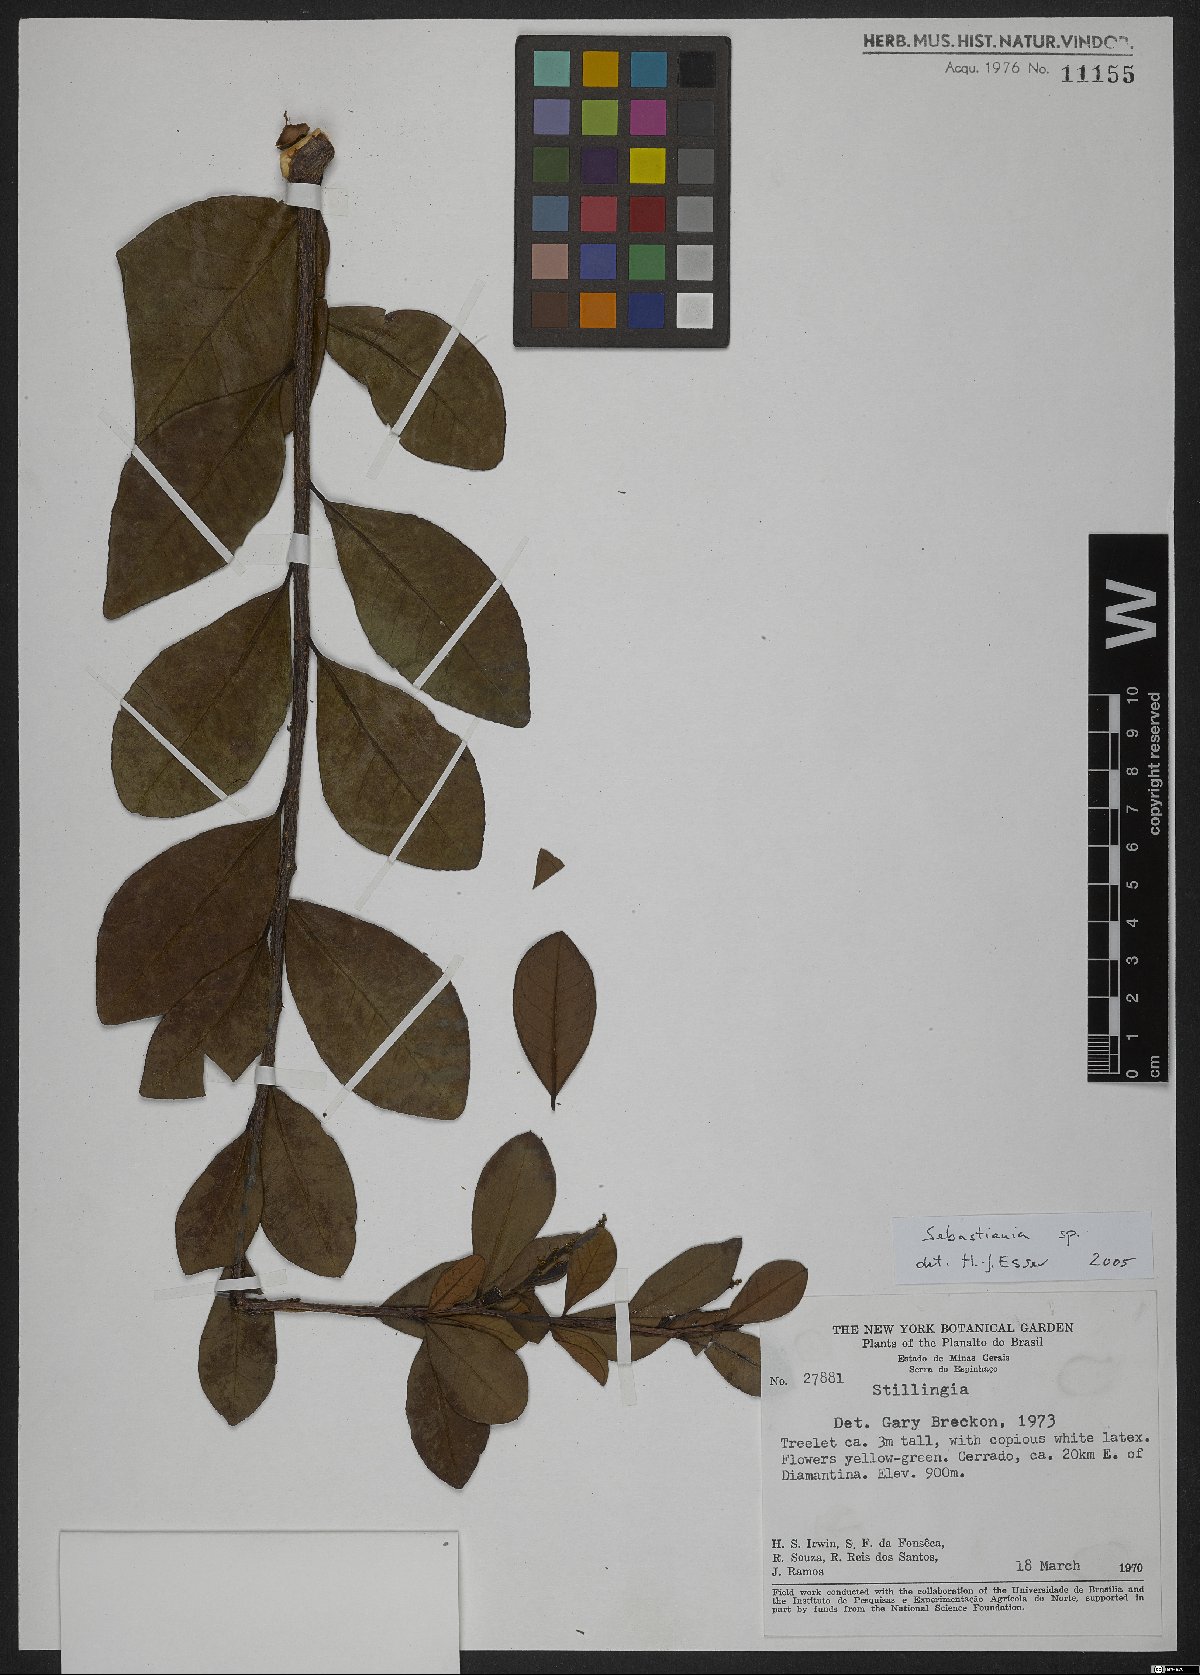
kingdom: Plantae
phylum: Tracheophyta
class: Magnoliopsida
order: Malpighiales
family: Euphorbiaceae
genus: Sebastiania
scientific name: Sebastiania
